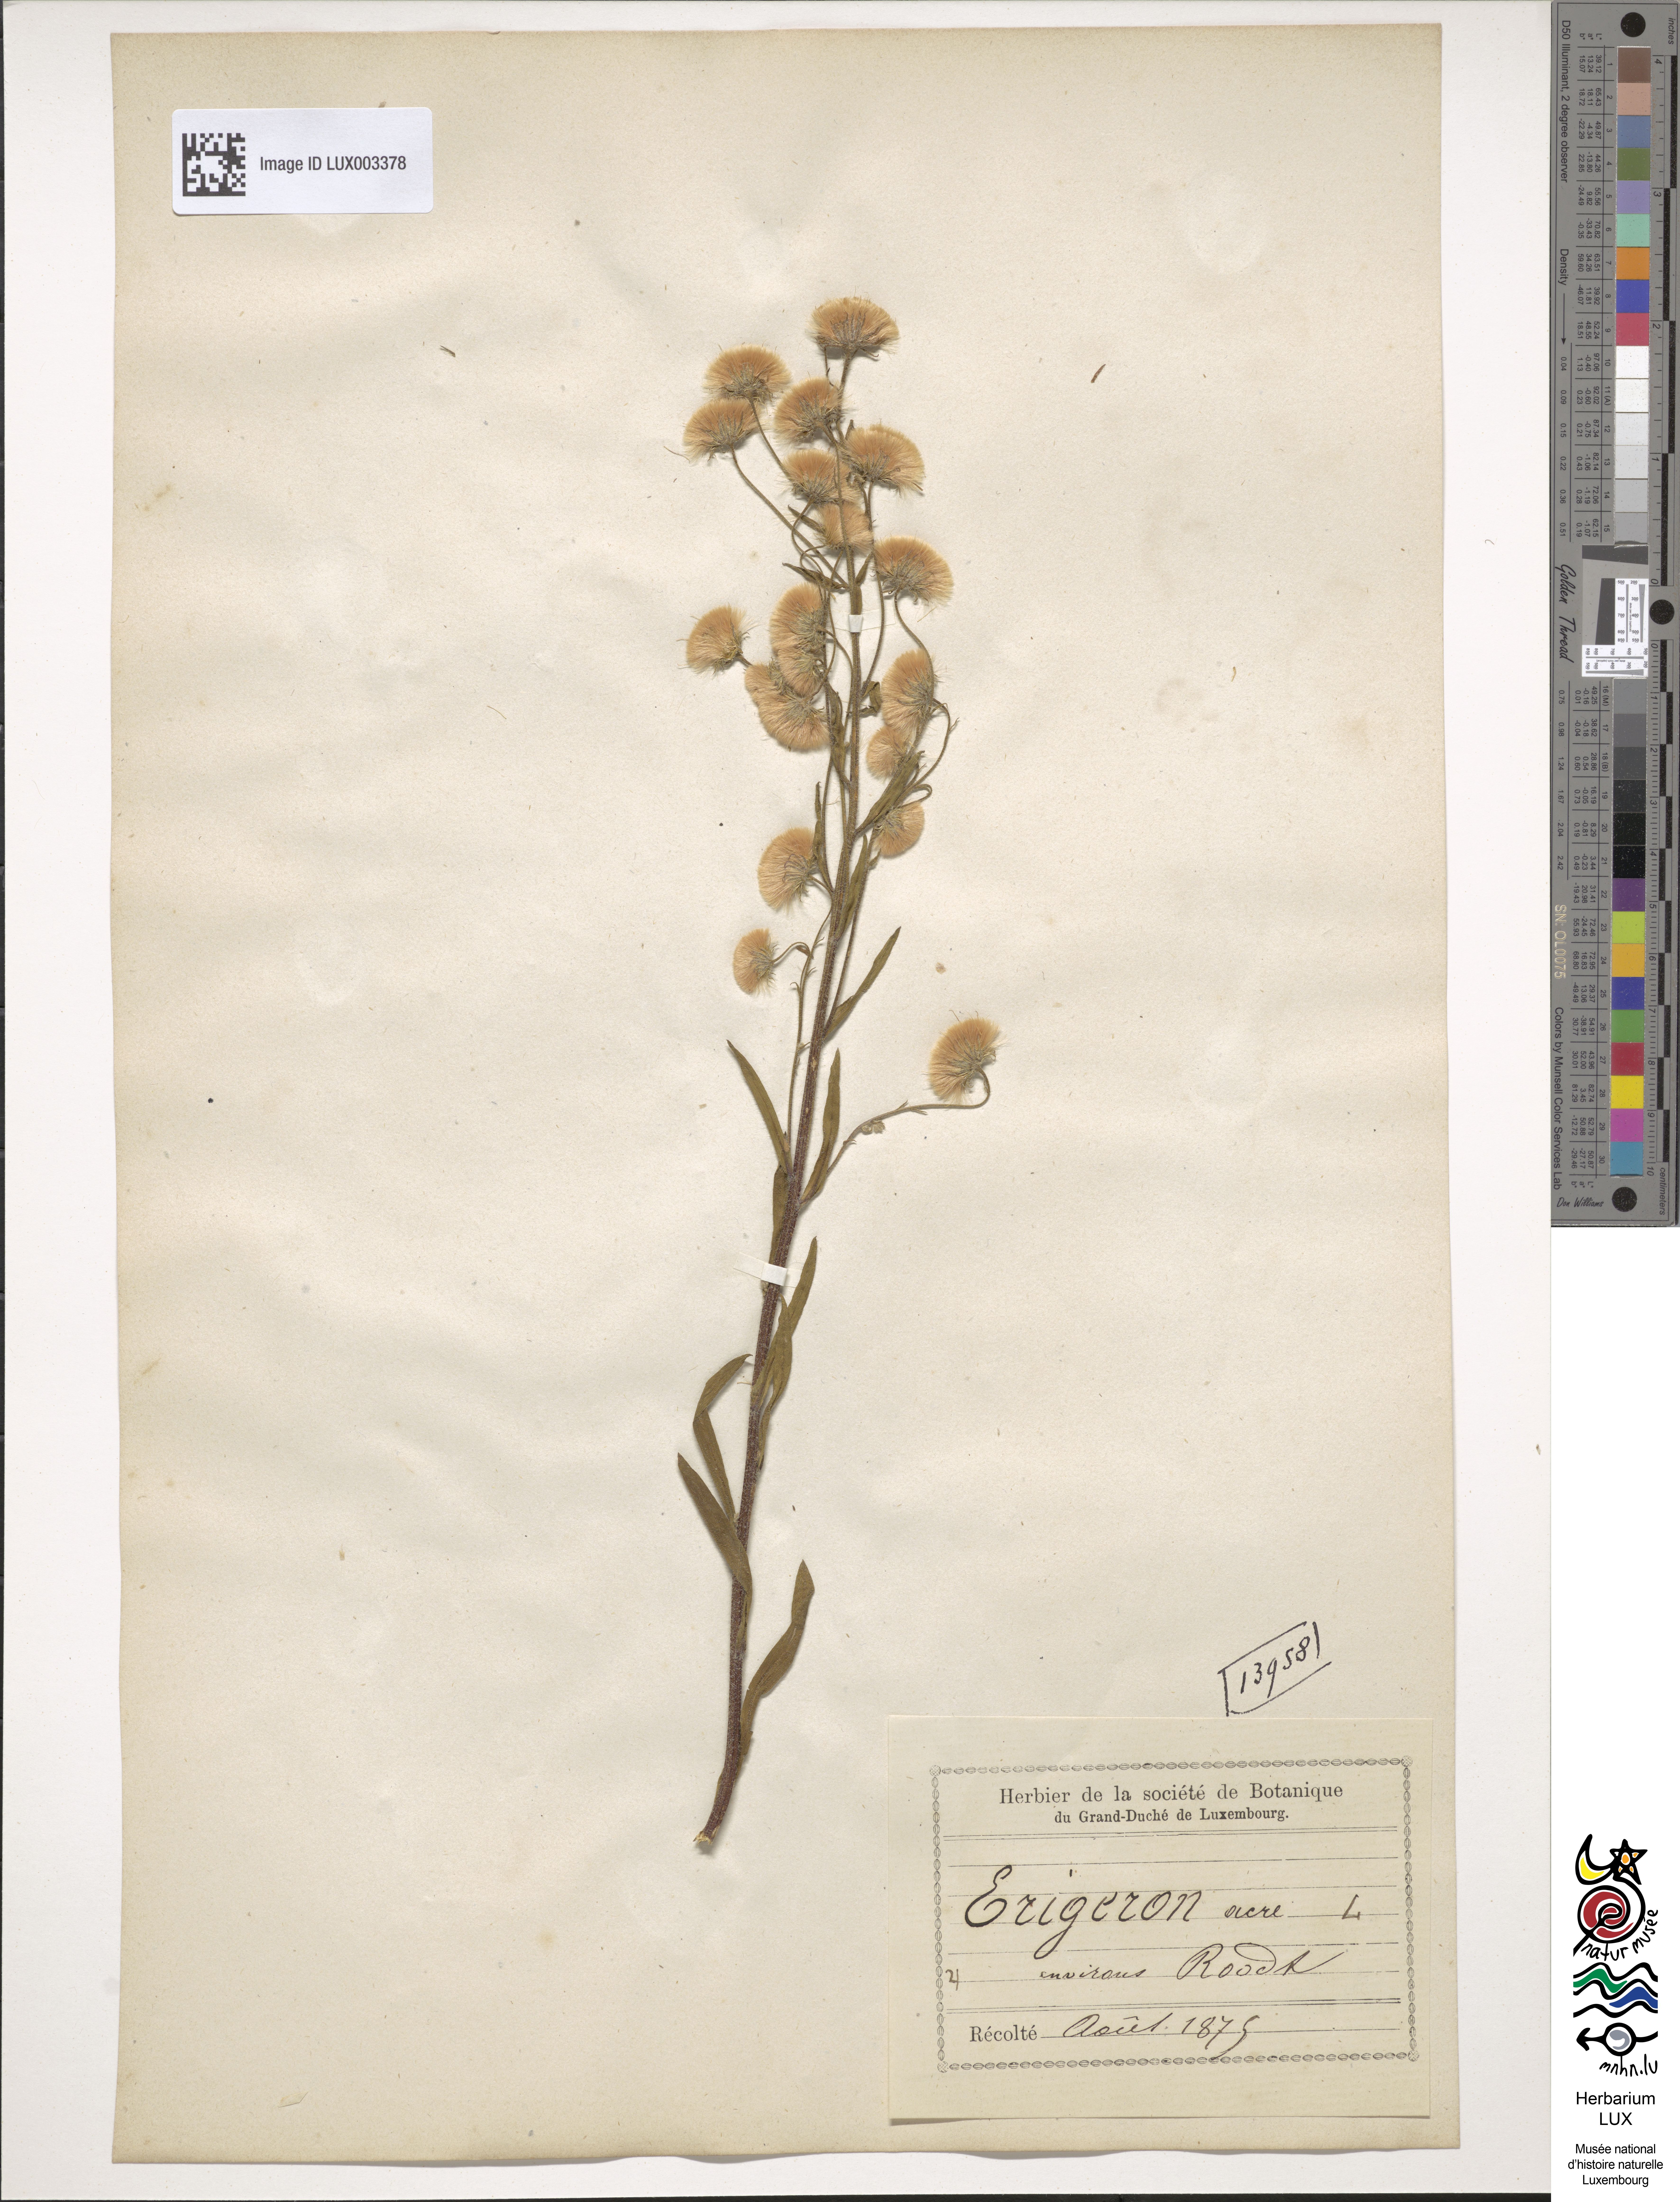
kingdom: Plantae
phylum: Tracheophyta
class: Magnoliopsida
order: Asterales
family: Asteraceae
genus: Erigeron
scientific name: Erigeron acer
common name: Blue fleabane
